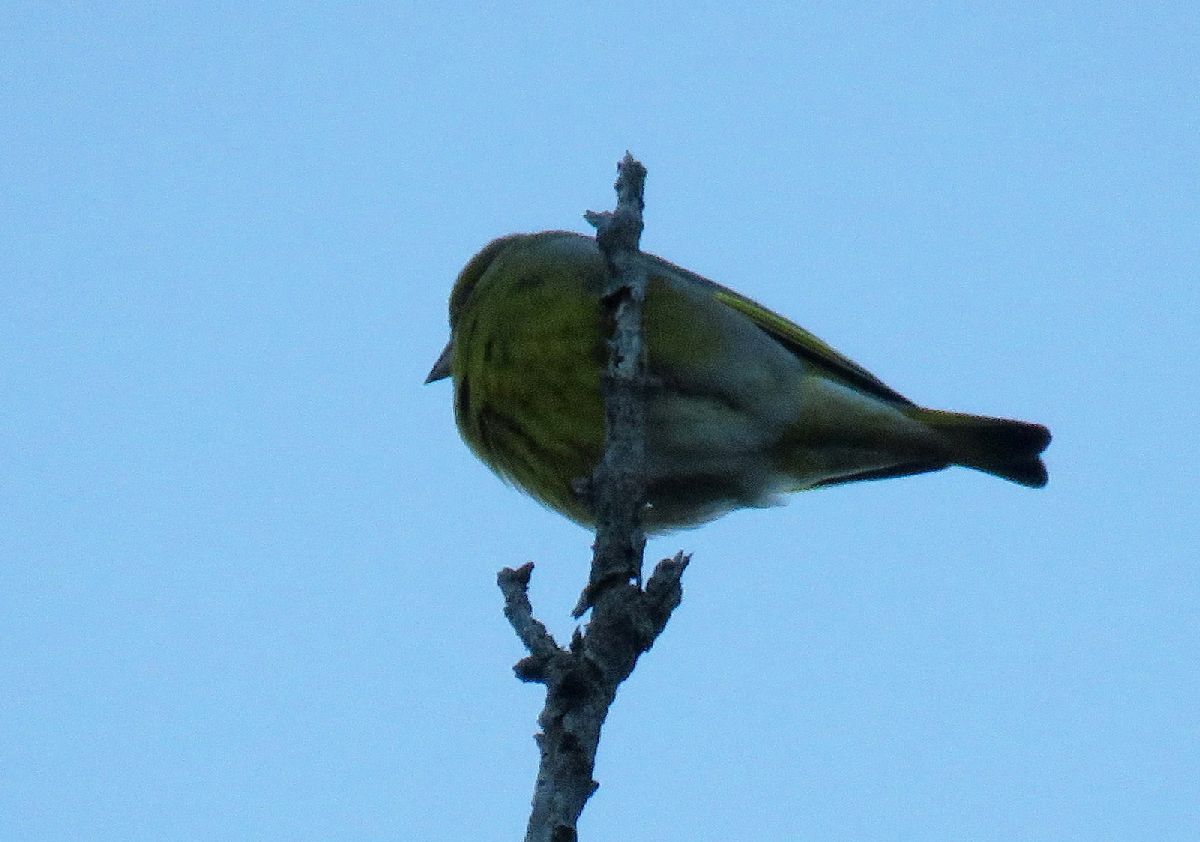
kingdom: Plantae
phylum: Tracheophyta
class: Liliopsida
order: Poales
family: Poaceae
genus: Chloris
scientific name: Chloris chloris
